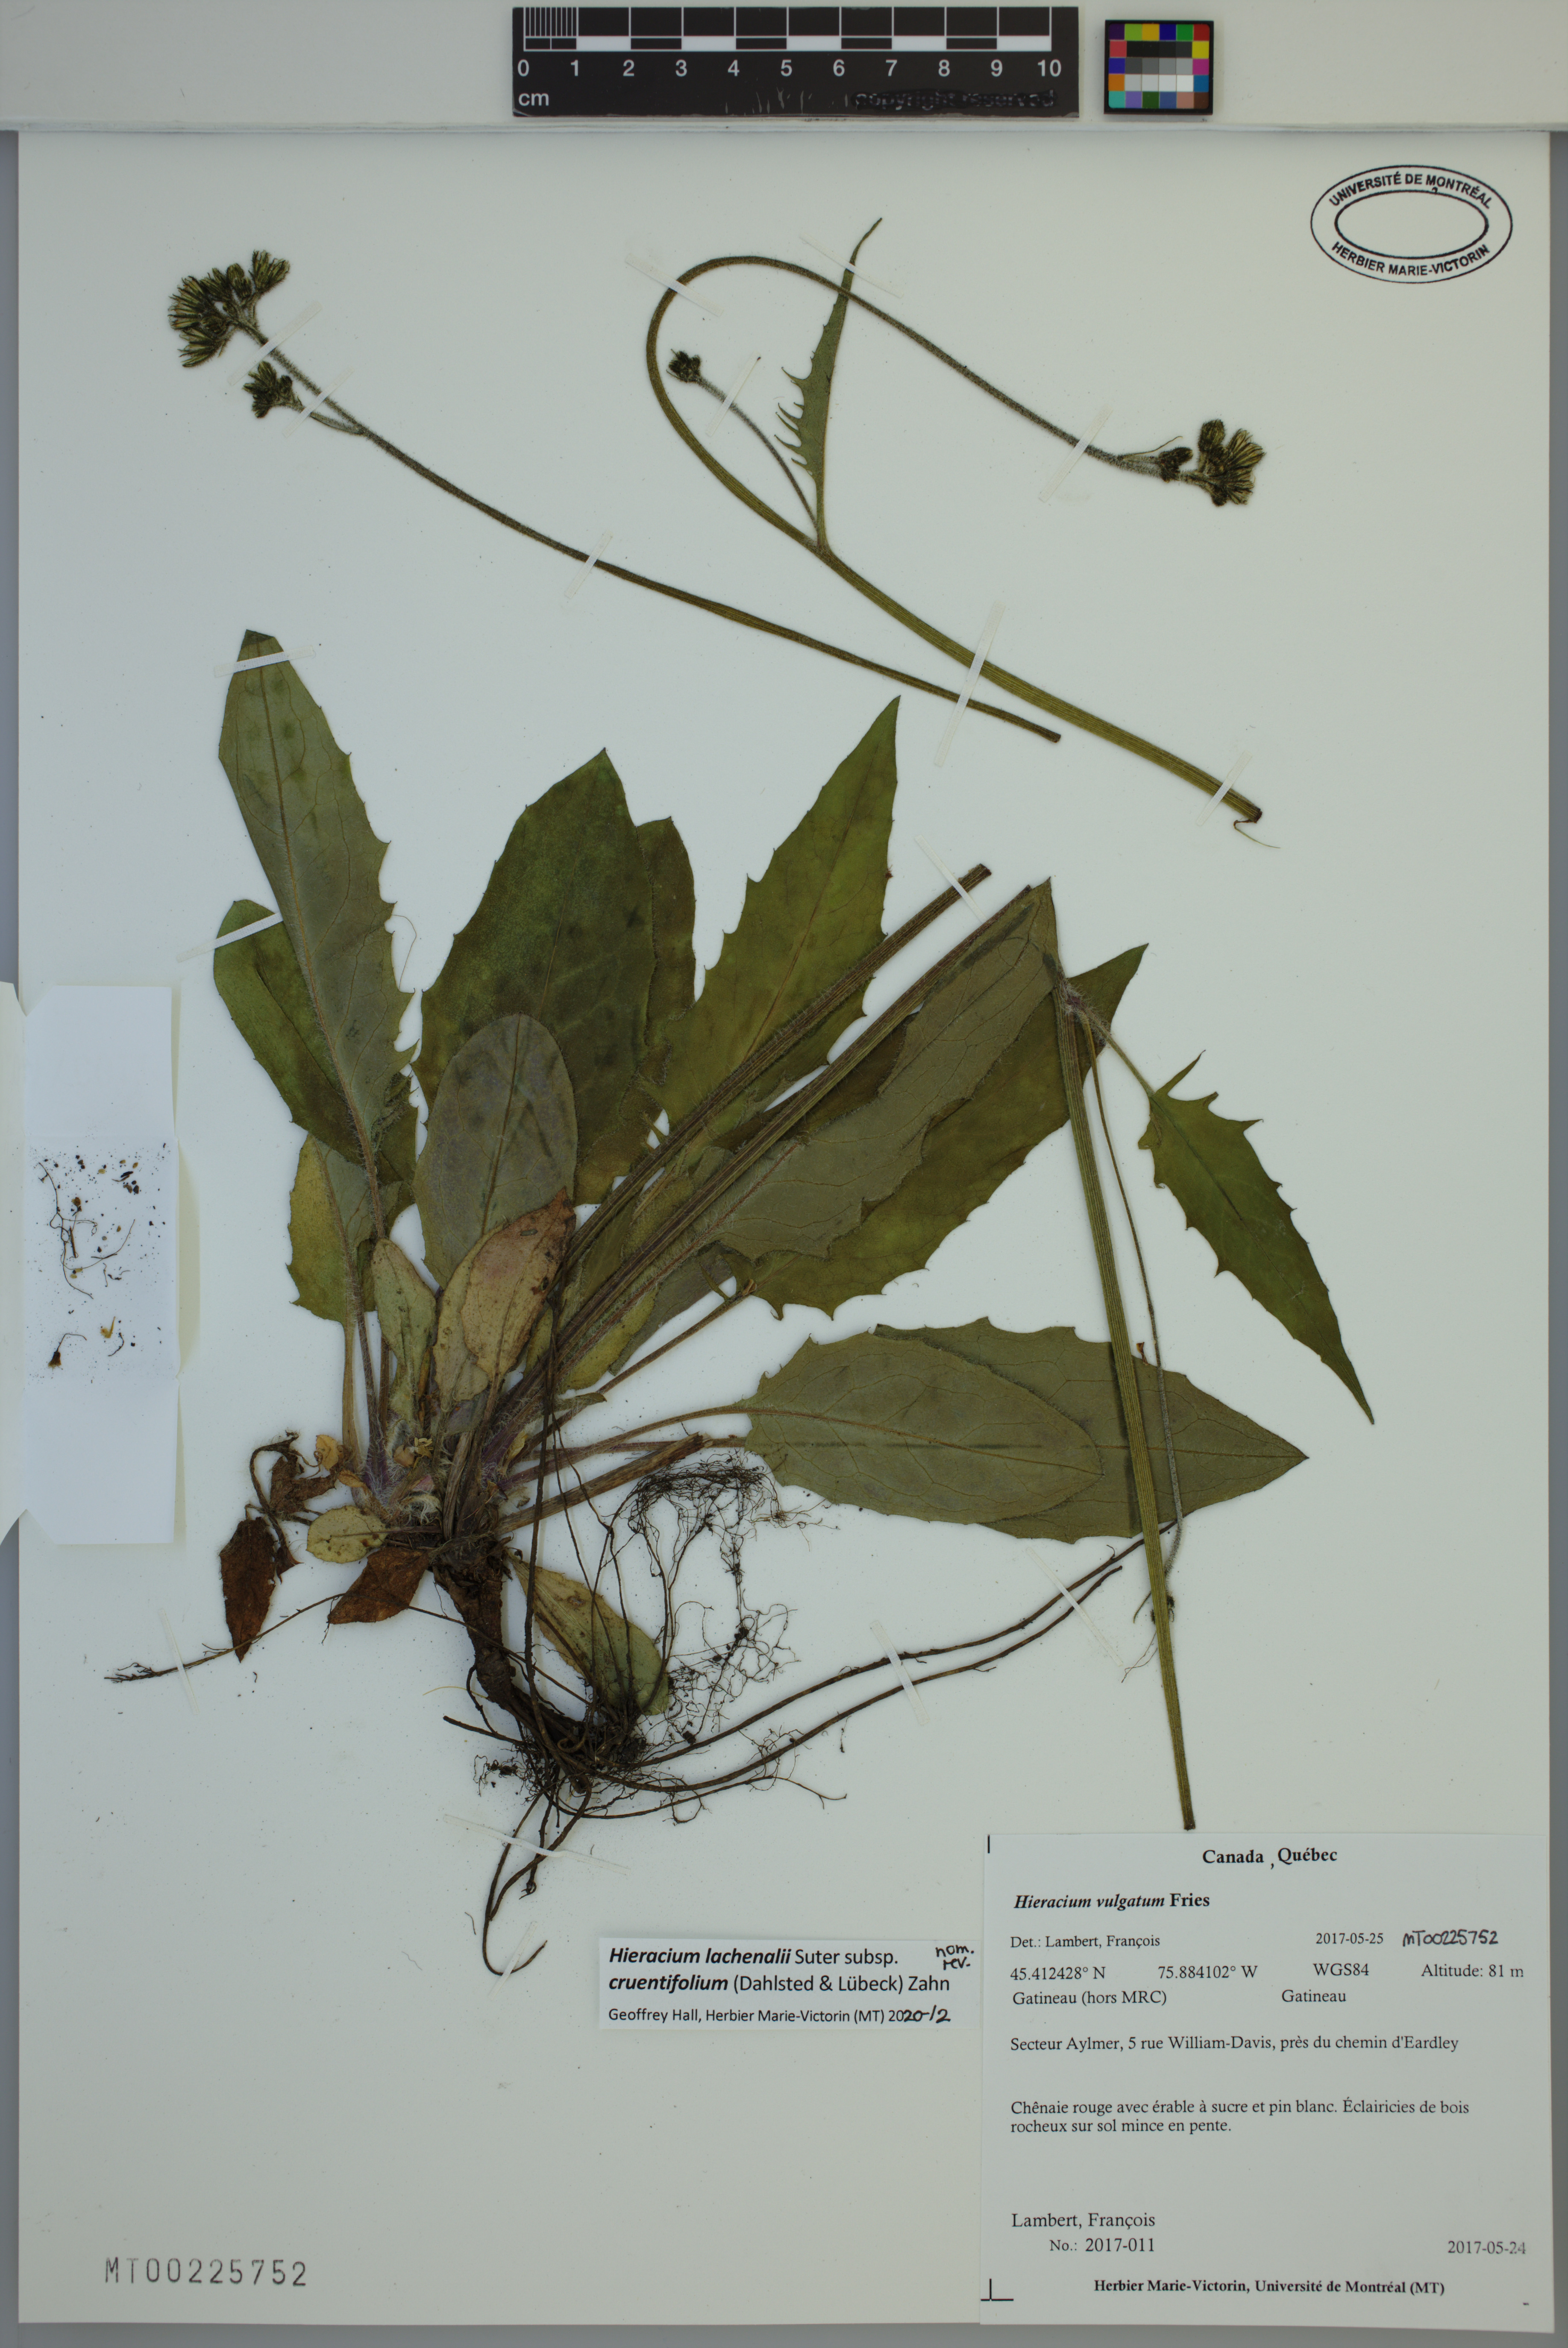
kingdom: Plantae
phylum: Tracheophyta
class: Magnoliopsida
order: Asterales
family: Asteraceae
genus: Hieracium
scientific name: Hieracium lachenalii
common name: Common hawkweed
